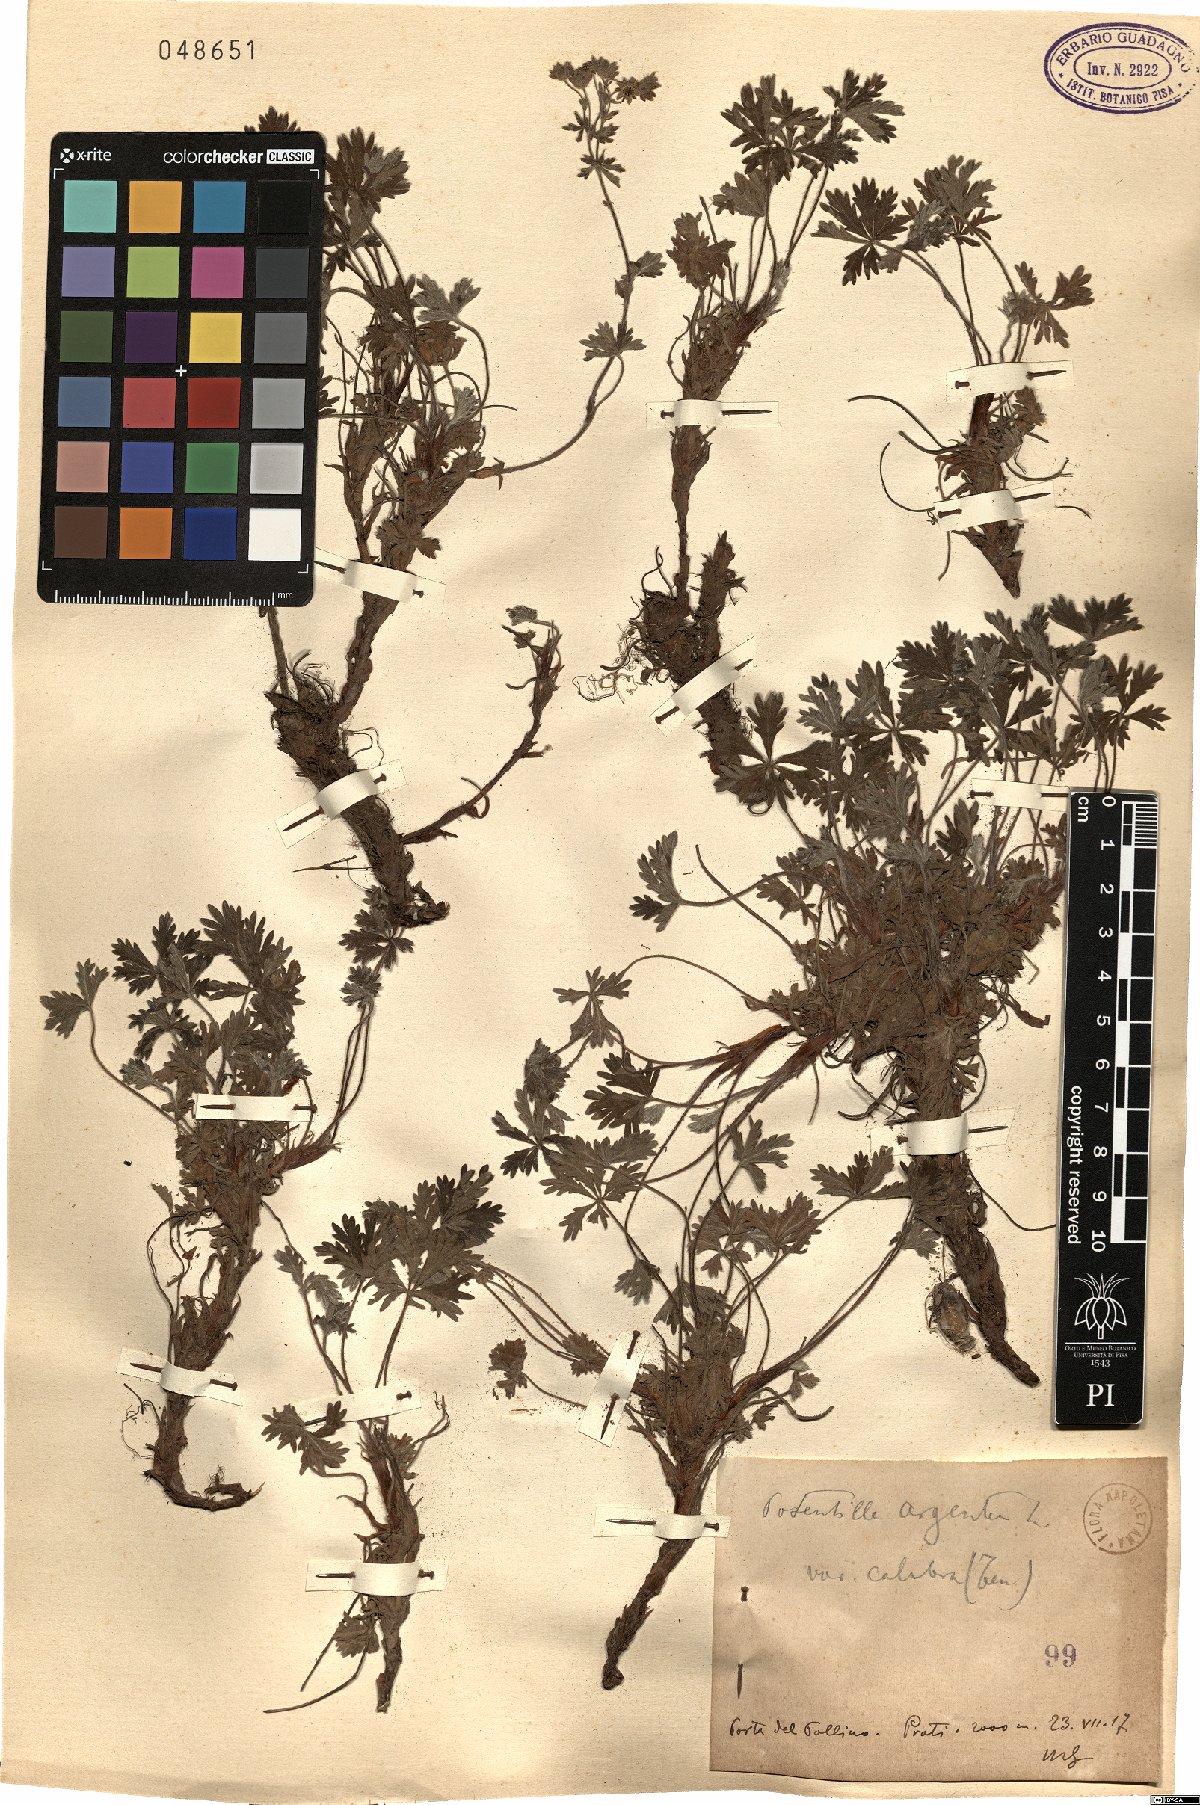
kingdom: Plantae
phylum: Tracheophyta
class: Magnoliopsida
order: Rosales
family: Rosaceae
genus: Potentilla
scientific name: Potentilla calabra
